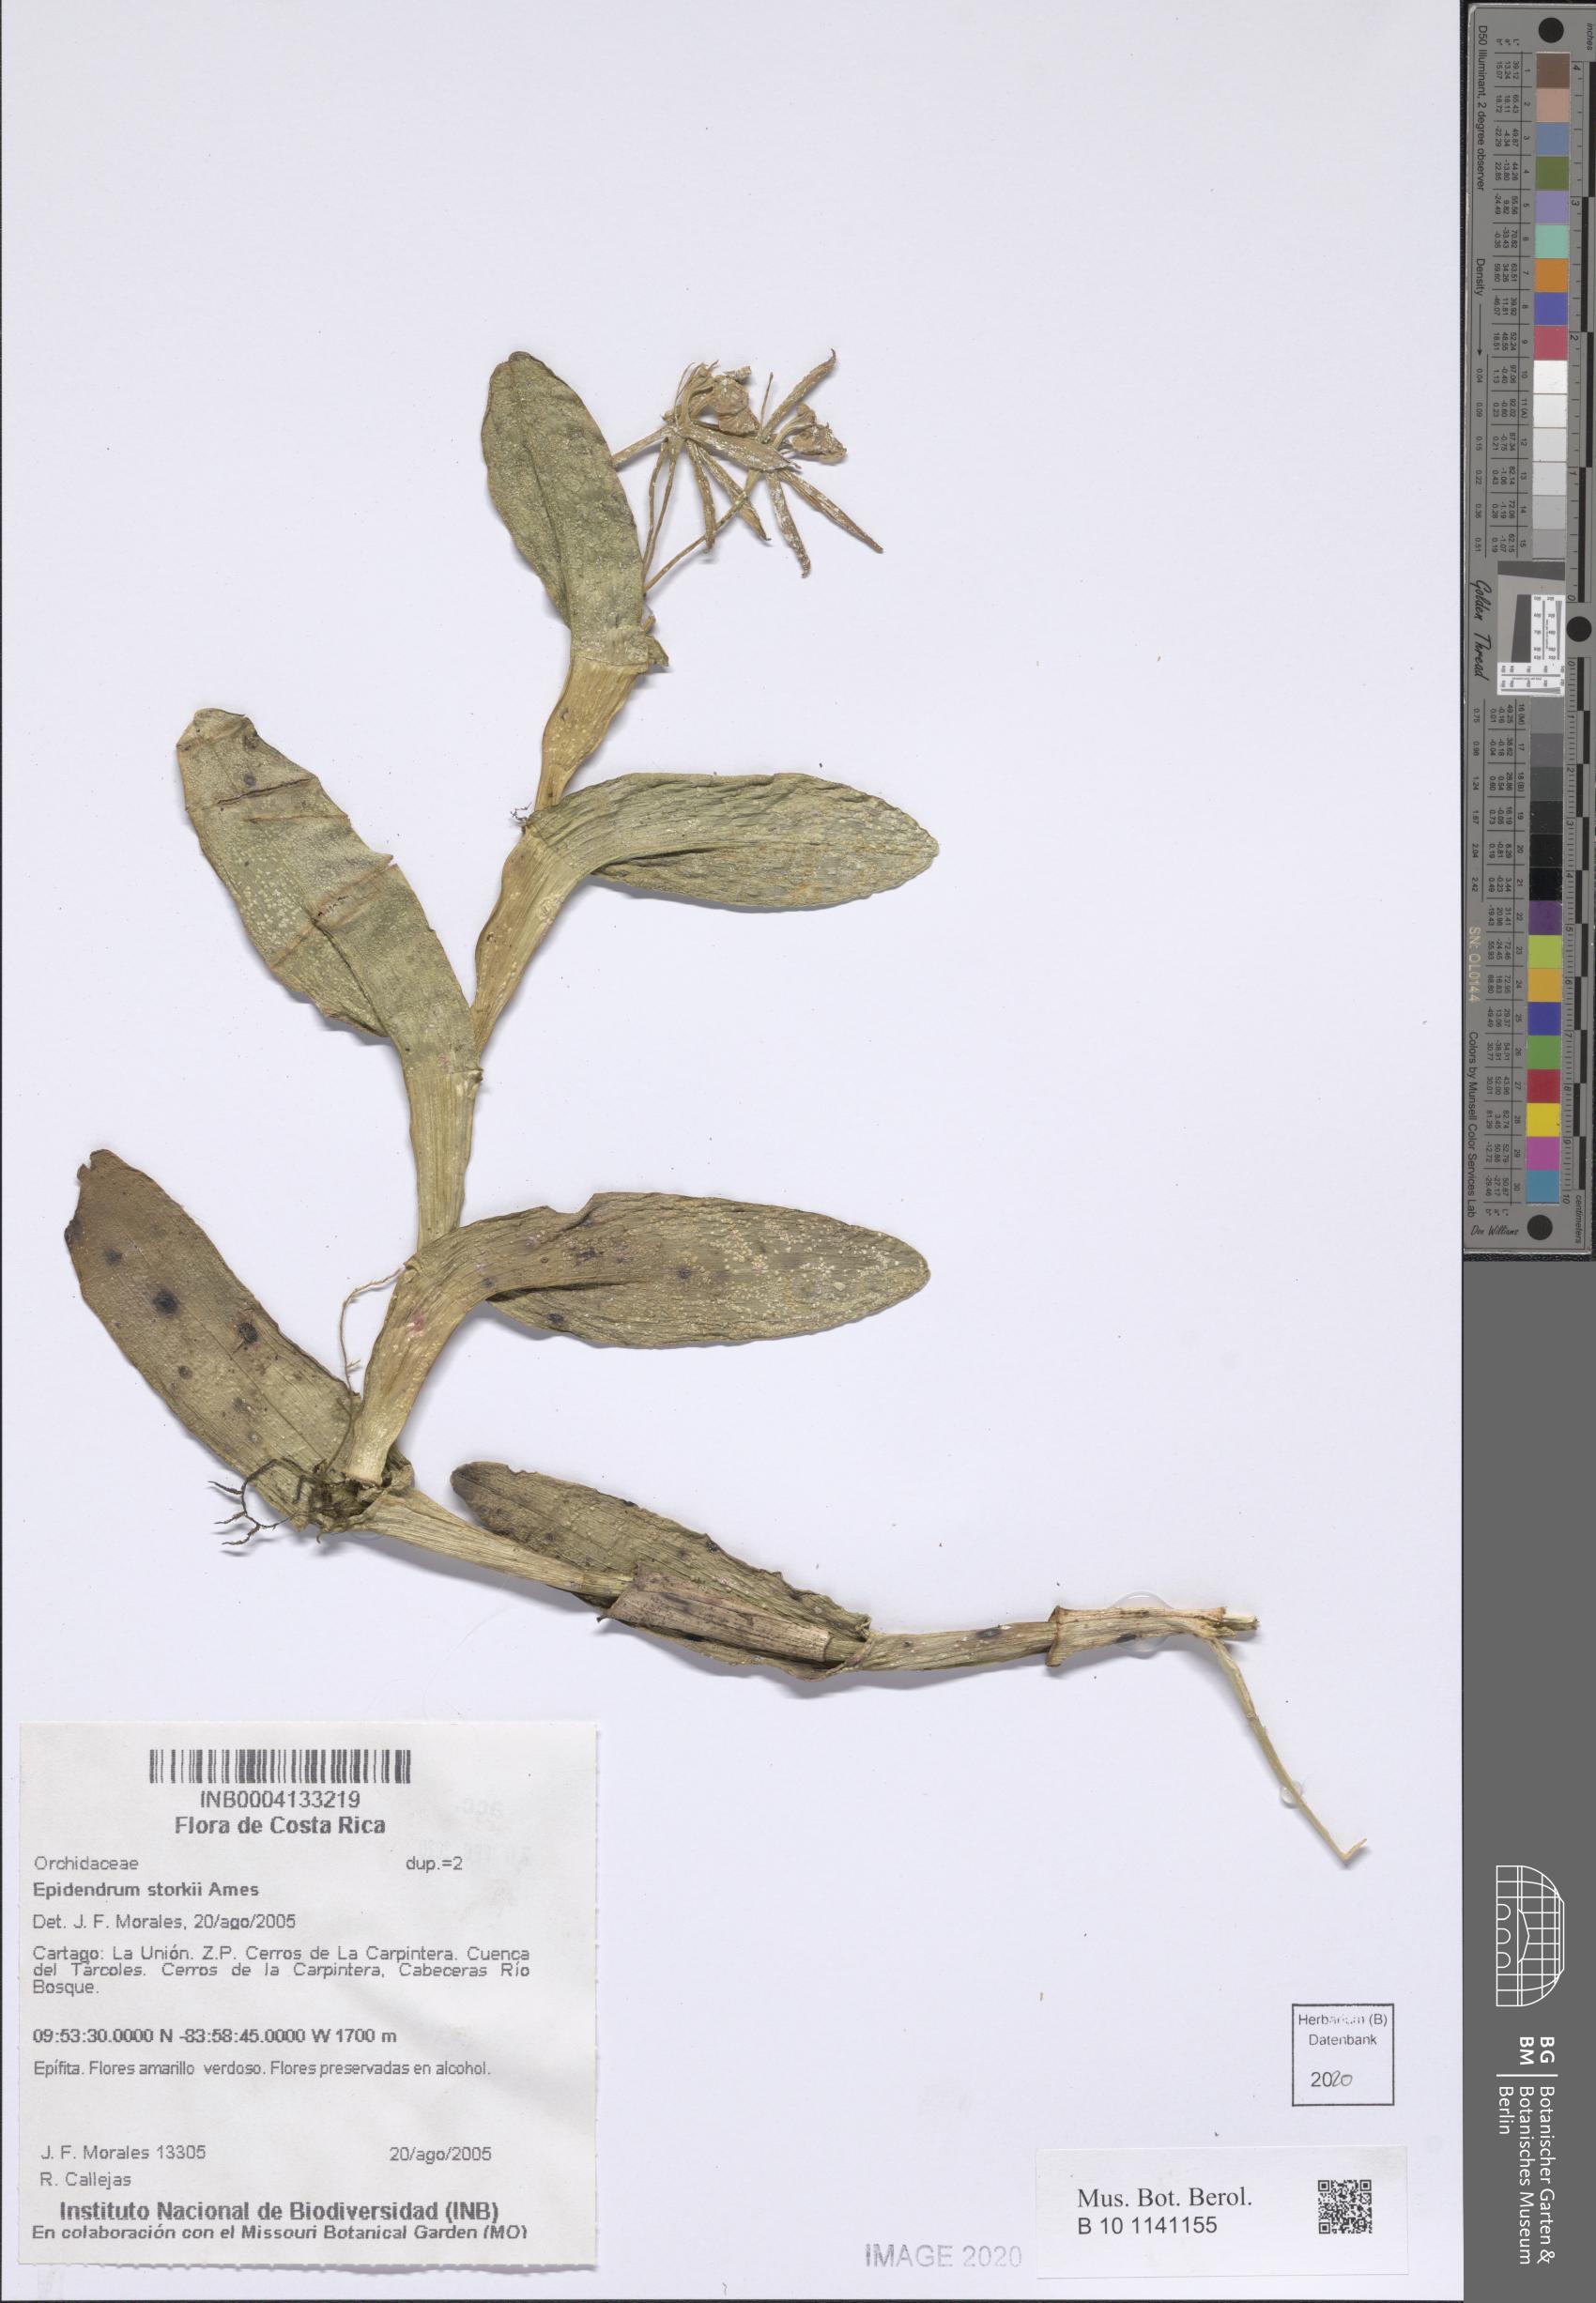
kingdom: Plantae
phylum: Tracheophyta
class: Liliopsida
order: Asparagales
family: Orchidaceae
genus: Epidendrum
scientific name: Epidendrum storkii
